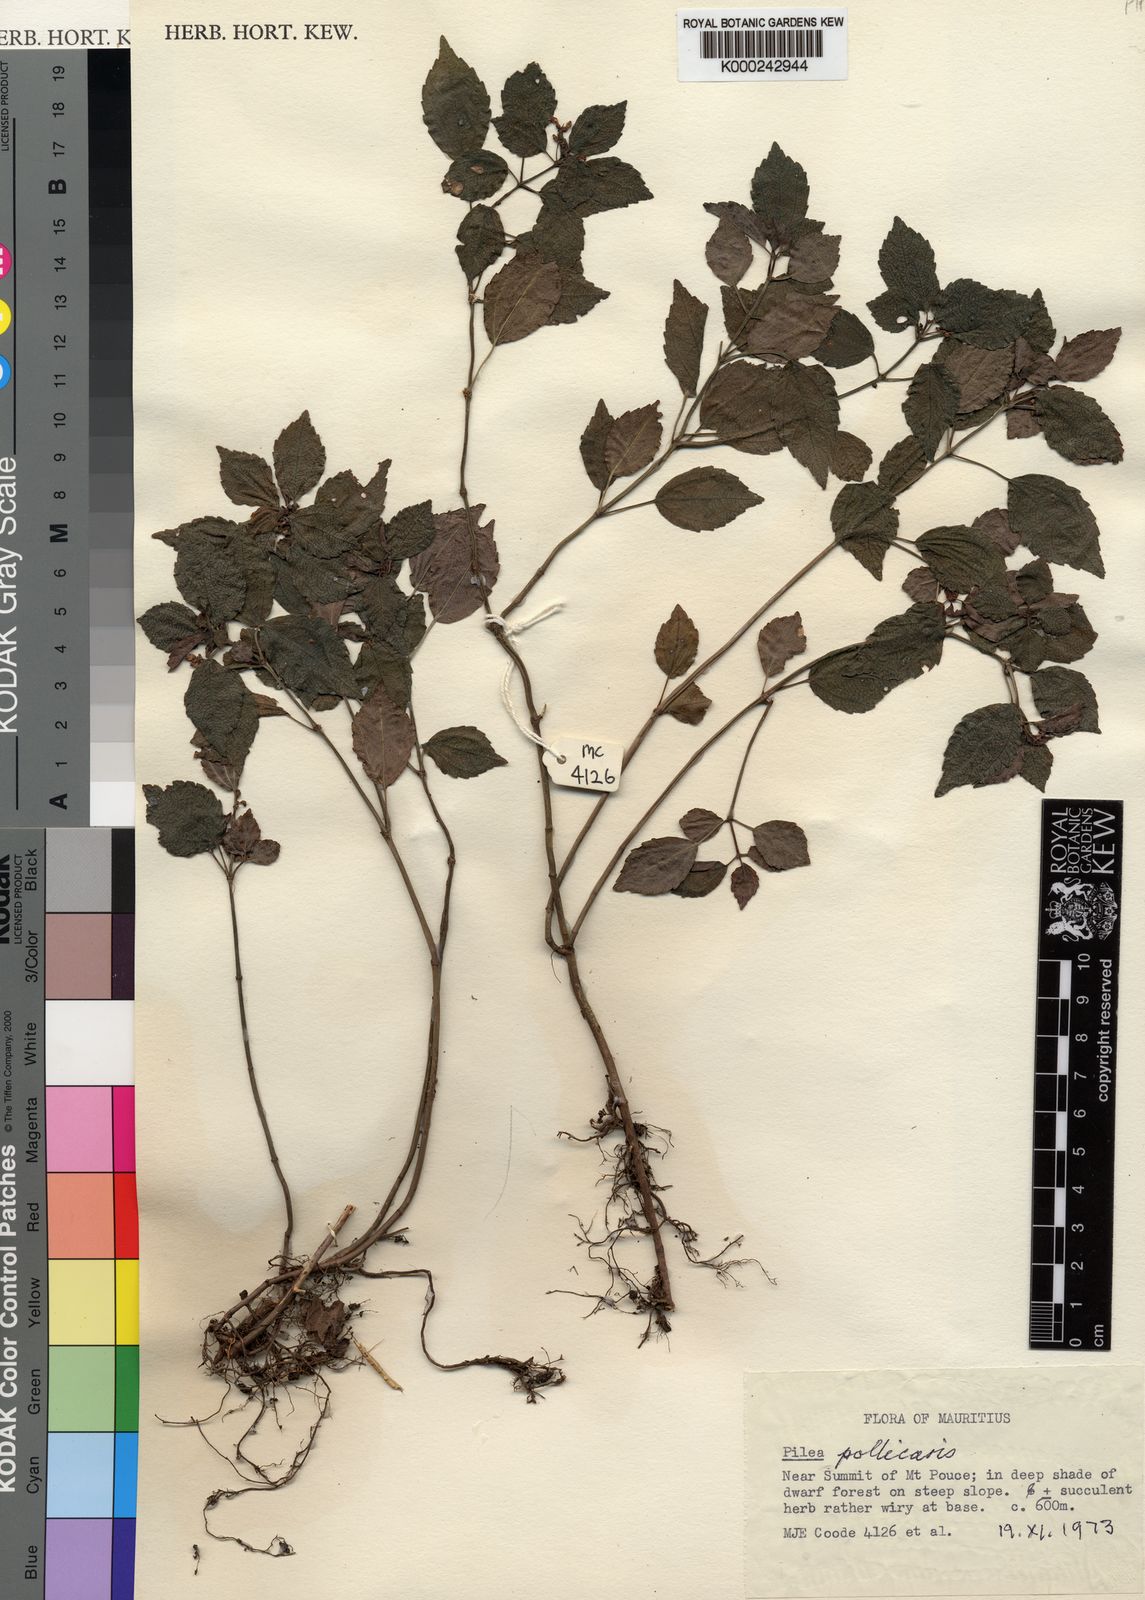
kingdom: Plantae
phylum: Tracheophyta
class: Magnoliopsida
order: Rosales
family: Urticaceae
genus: Pilea
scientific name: Pilea pollicaris
